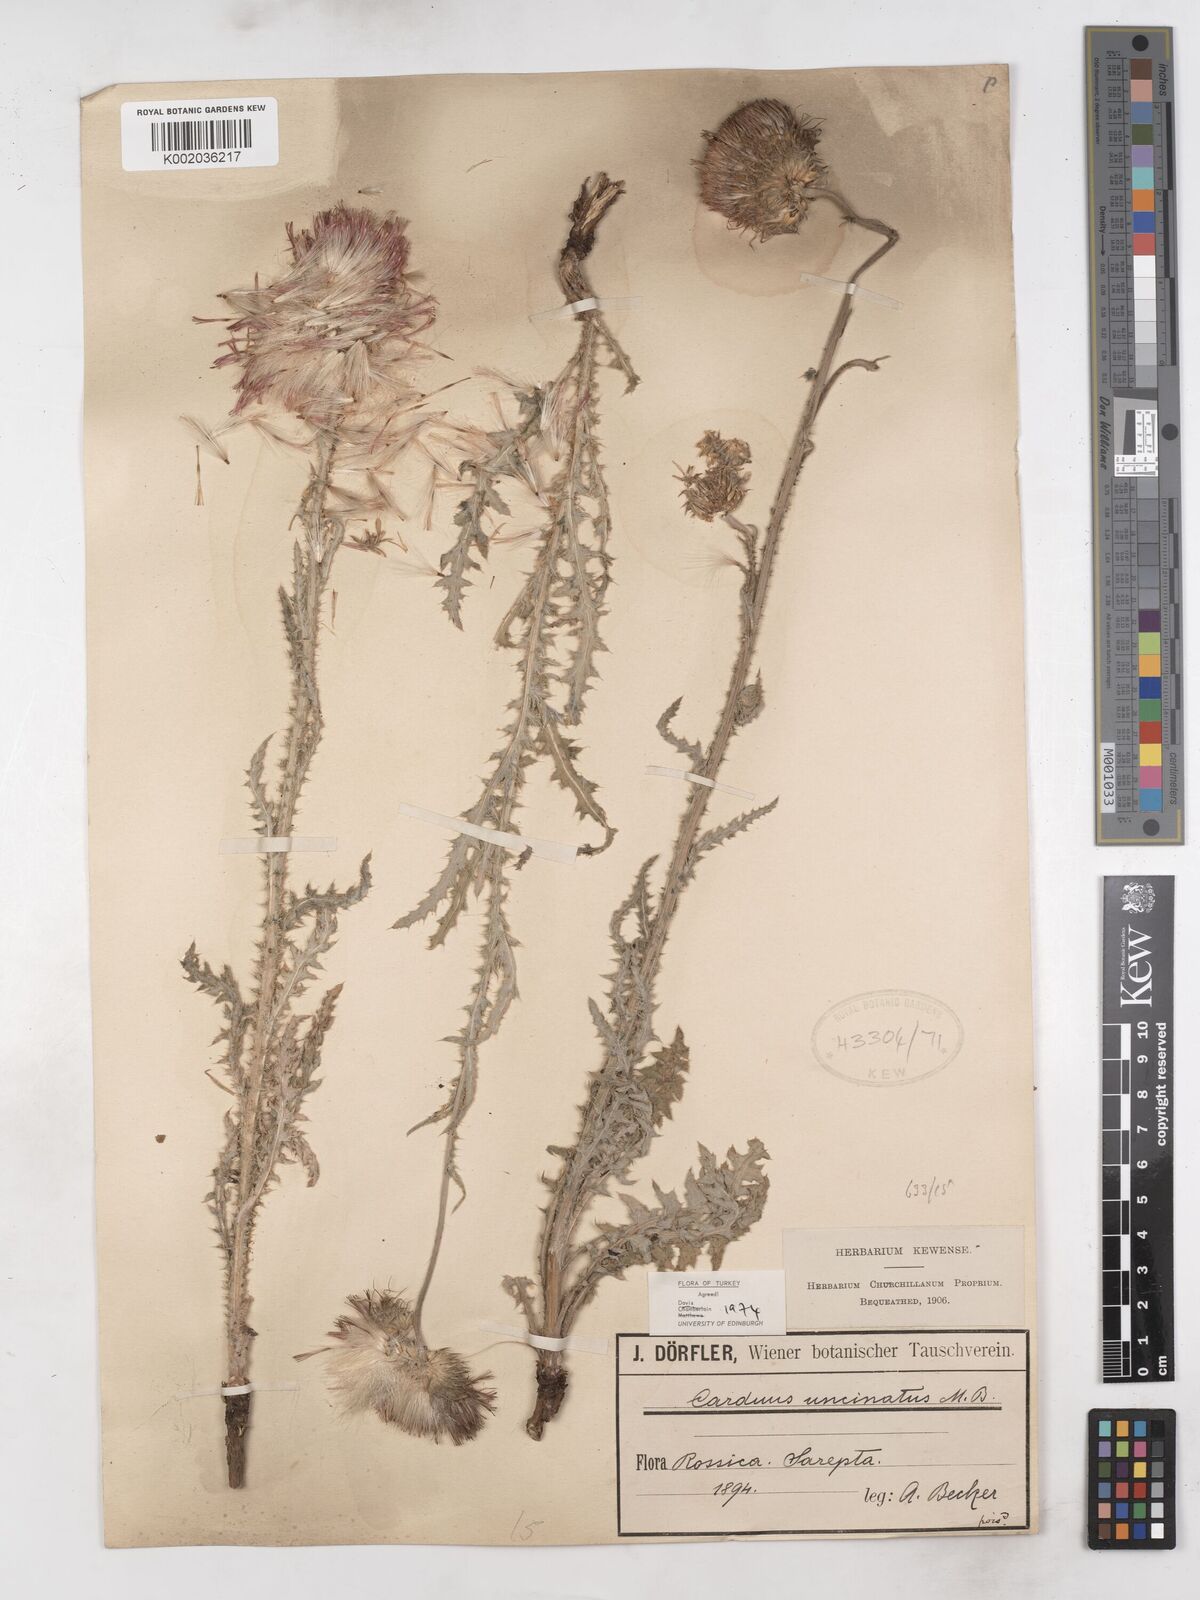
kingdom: Plantae
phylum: Tracheophyta
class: Magnoliopsida
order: Asterales
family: Asteraceae
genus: Carduus
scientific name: Carduus uncinatus
